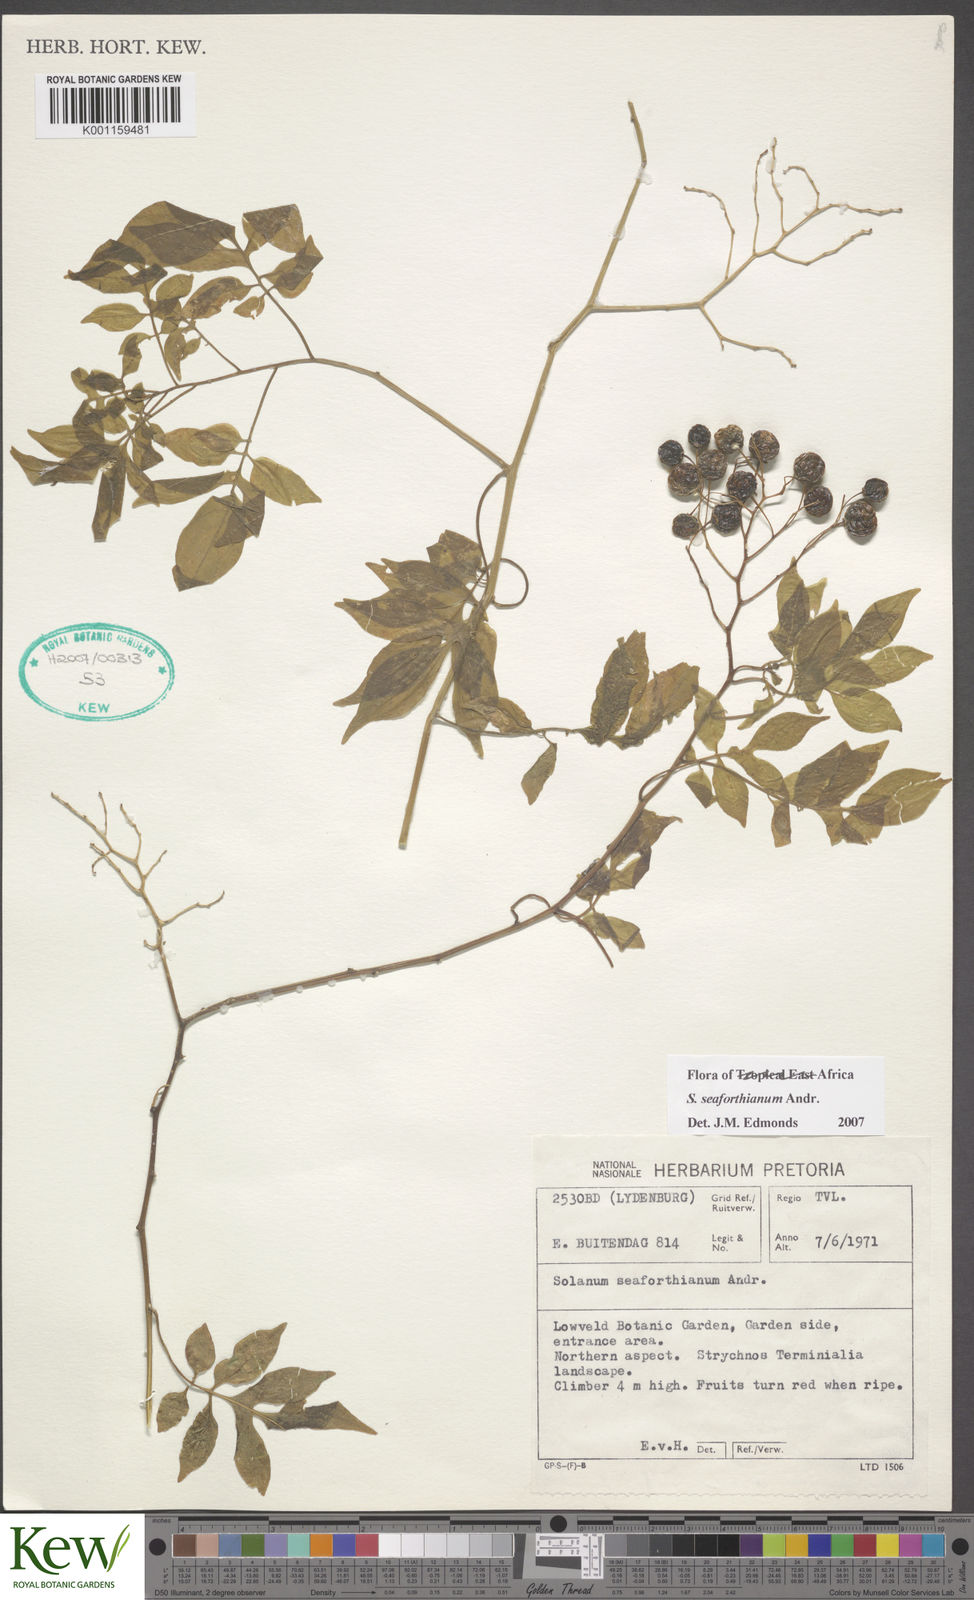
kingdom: Plantae
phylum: Tracheophyta
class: Magnoliopsida
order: Solanales
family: Solanaceae
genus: Solanum
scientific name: Solanum seaforthianum
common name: Brazilian nightshade
